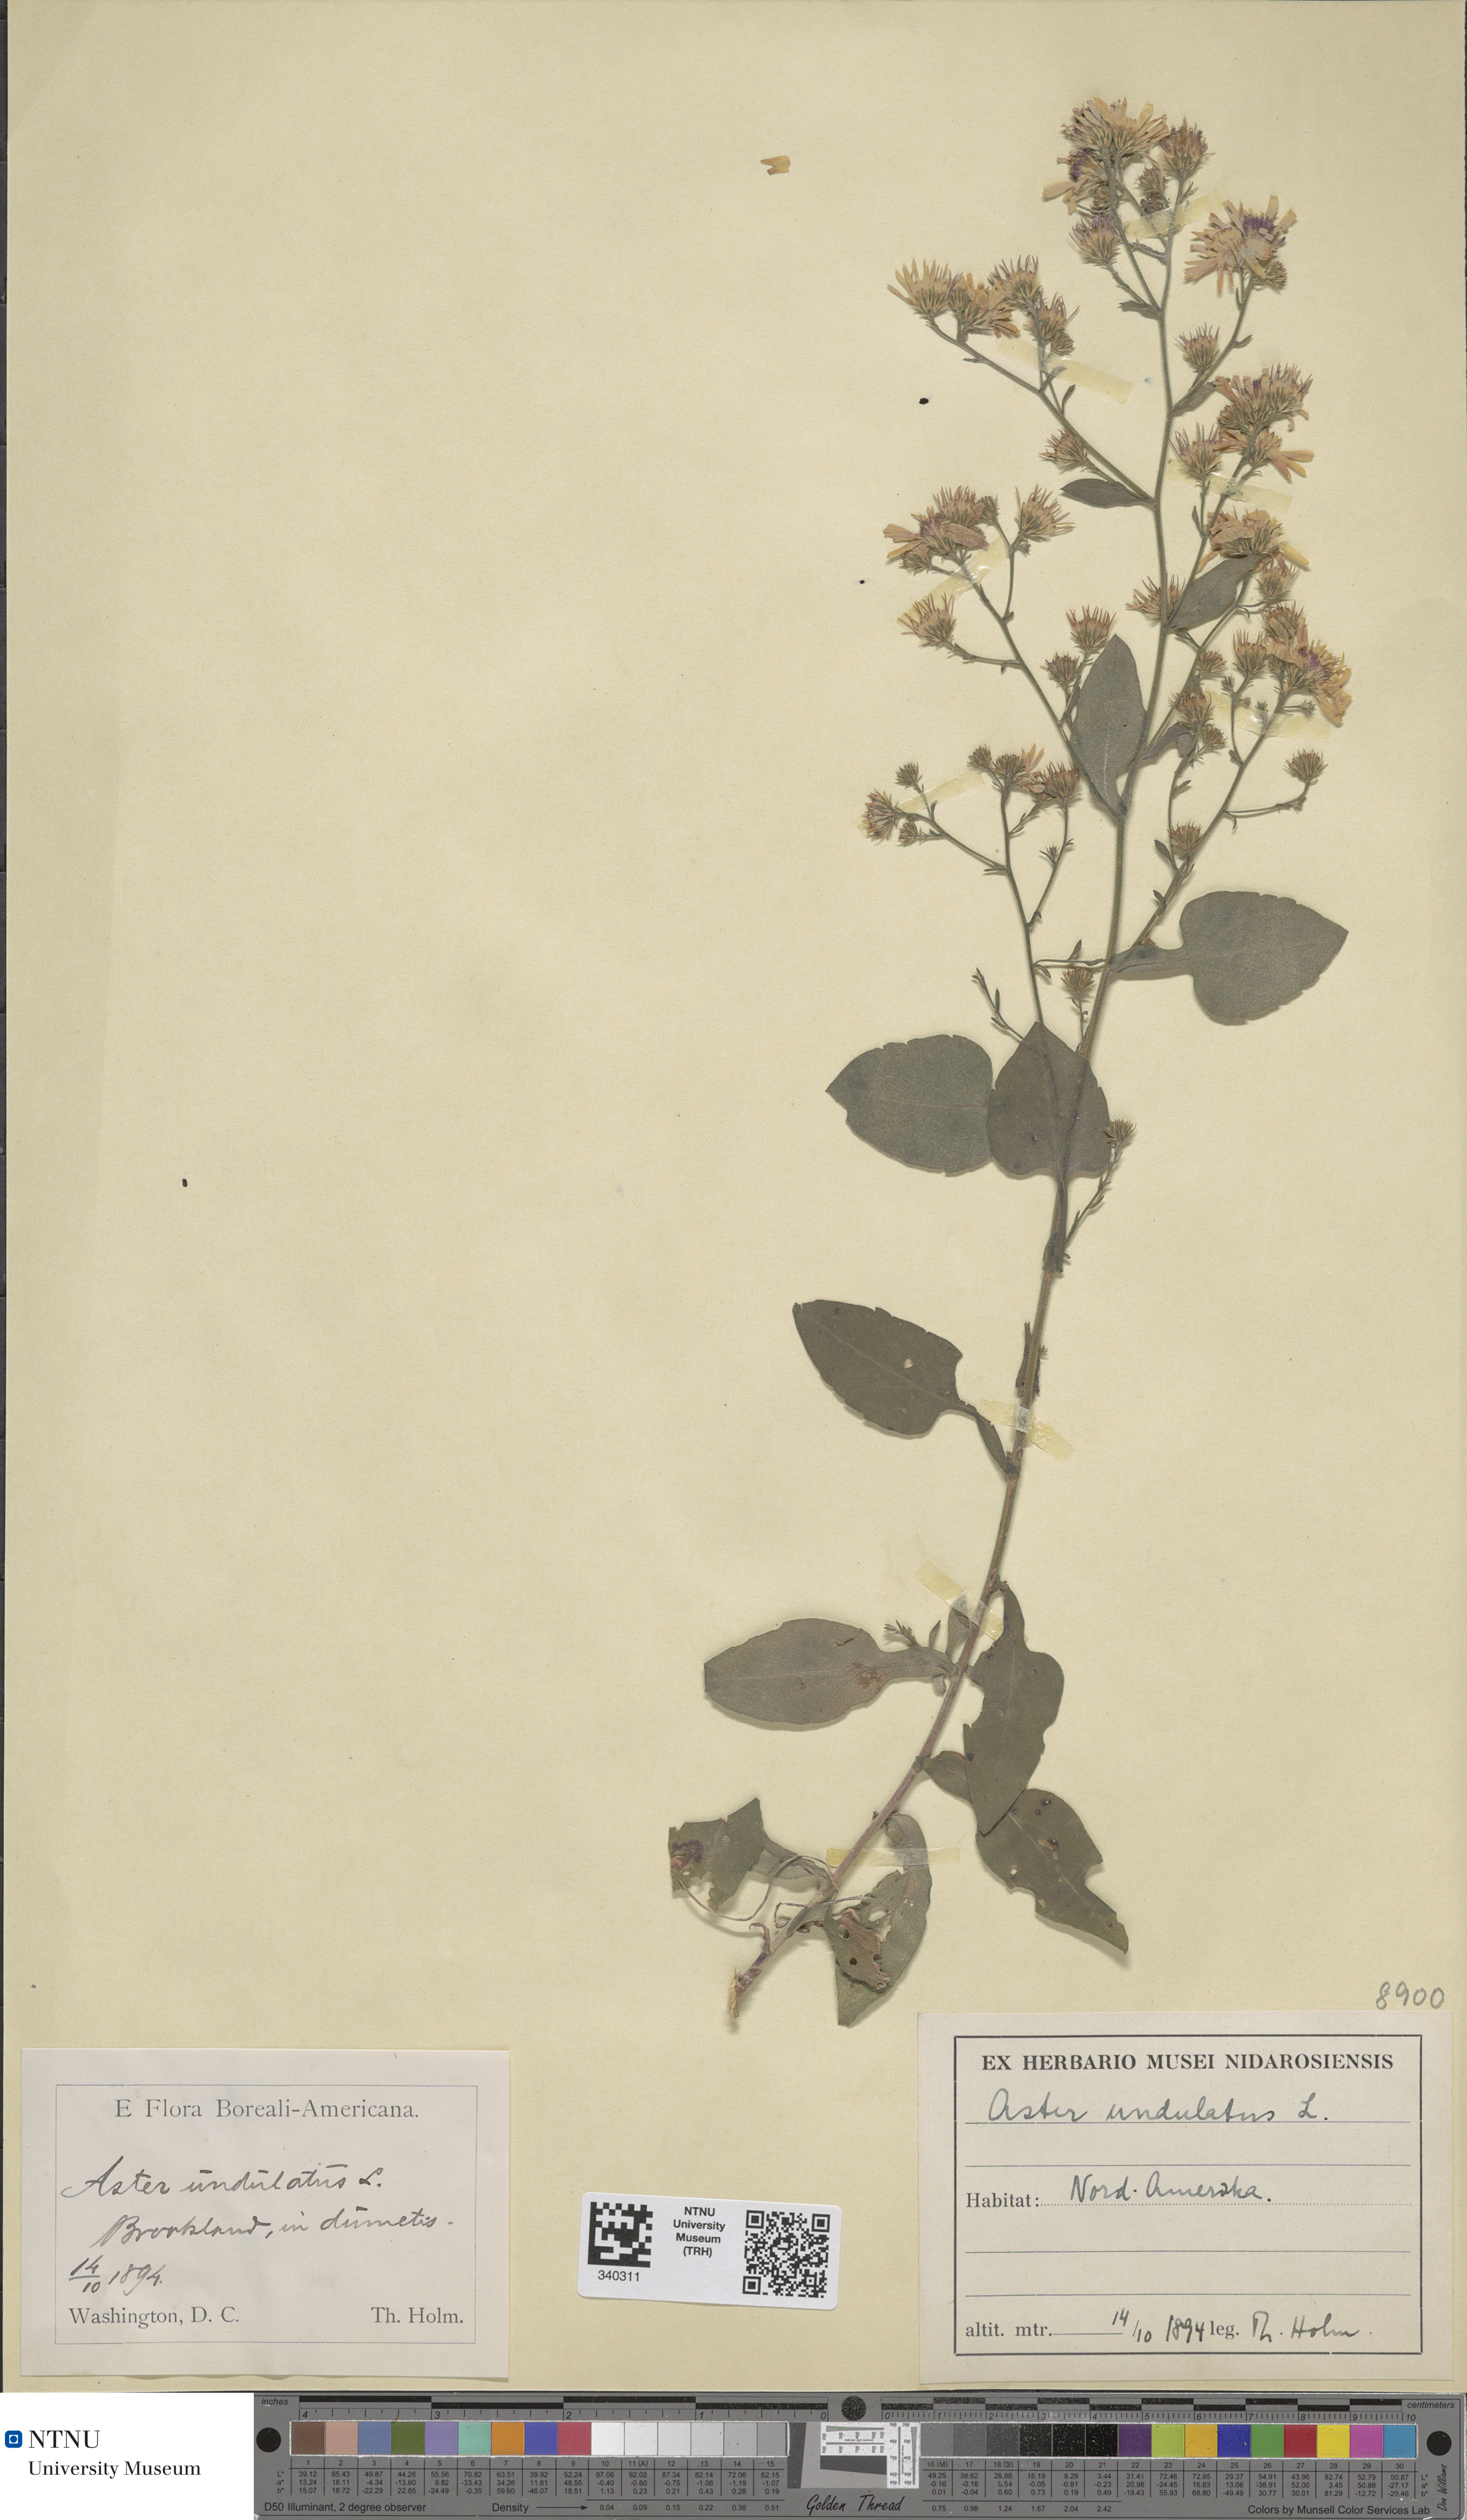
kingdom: Plantae
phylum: Tracheophyta
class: Magnoliopsida
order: Asterales
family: Asteraceae
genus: Symphyotrichum
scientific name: Symphyotrichum undulatum
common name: Clasping heart-leaf aster
